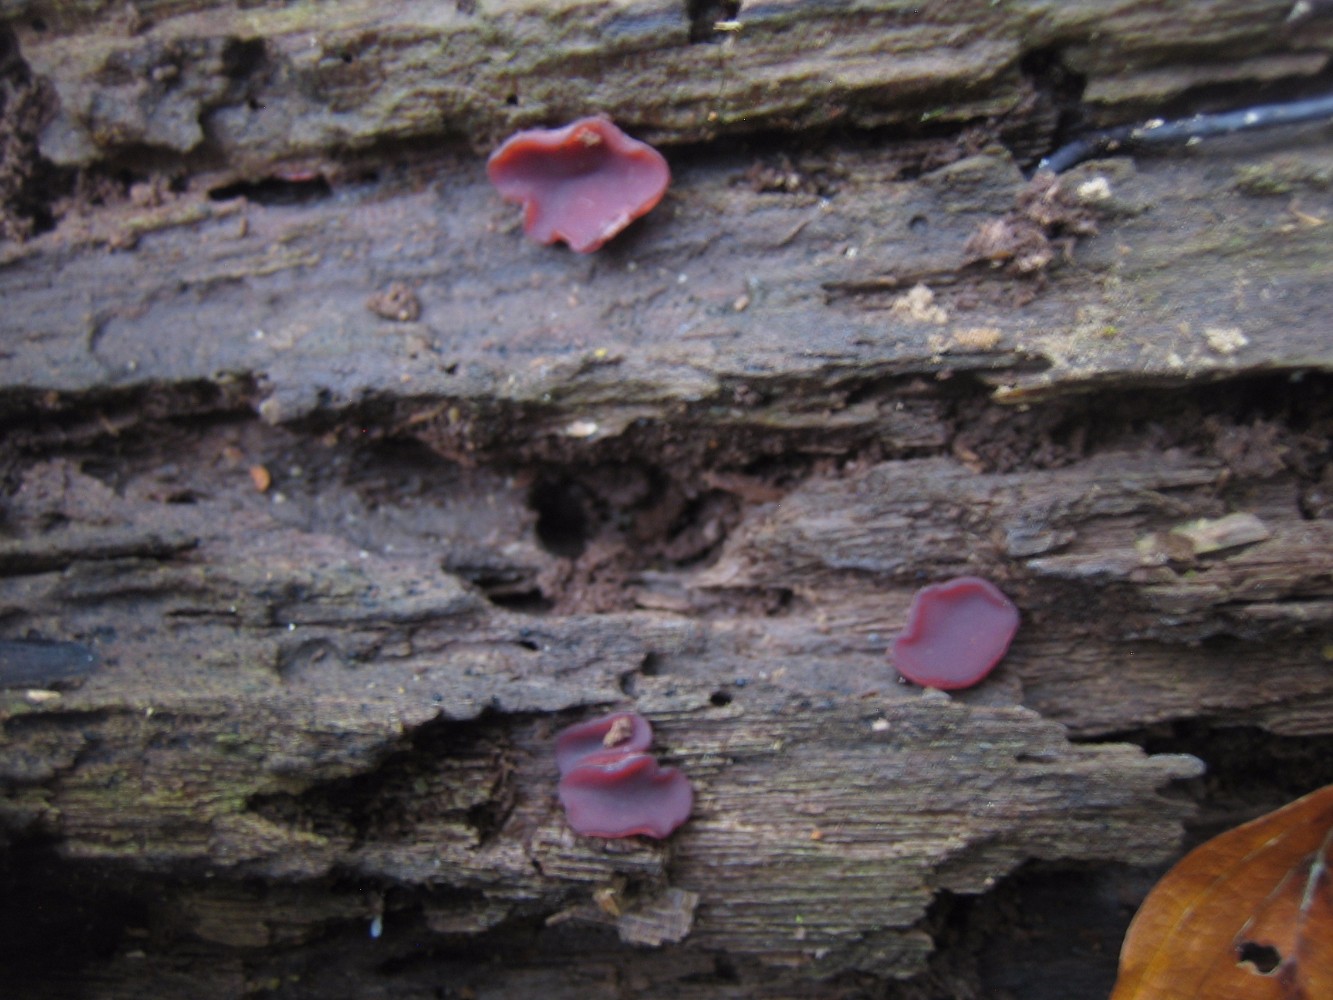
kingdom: Fungi
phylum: Ascomycota
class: Leotiomycetes
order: Helotiales
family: Gelatinodiscaceae
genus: Ascocoryne
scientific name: Ascocoryne cylichnium
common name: stor sejskive
